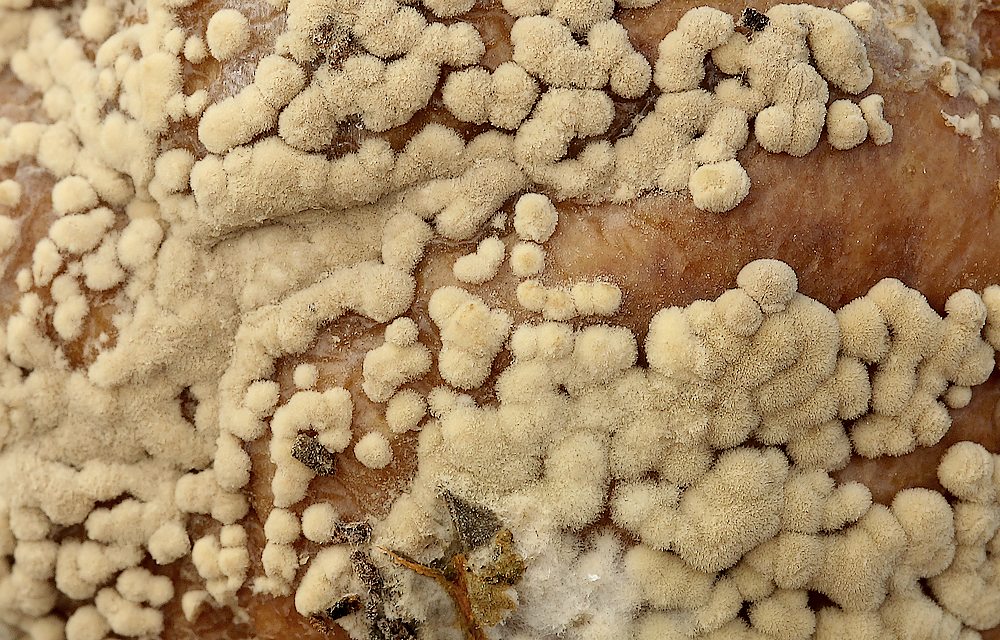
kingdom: Fungi
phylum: Ascomycota
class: Leotiomycetes
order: Helotiales
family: Sclerotiniaceae
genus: Monilinia
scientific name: Monilinia fructigena
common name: æble-knoldskive
